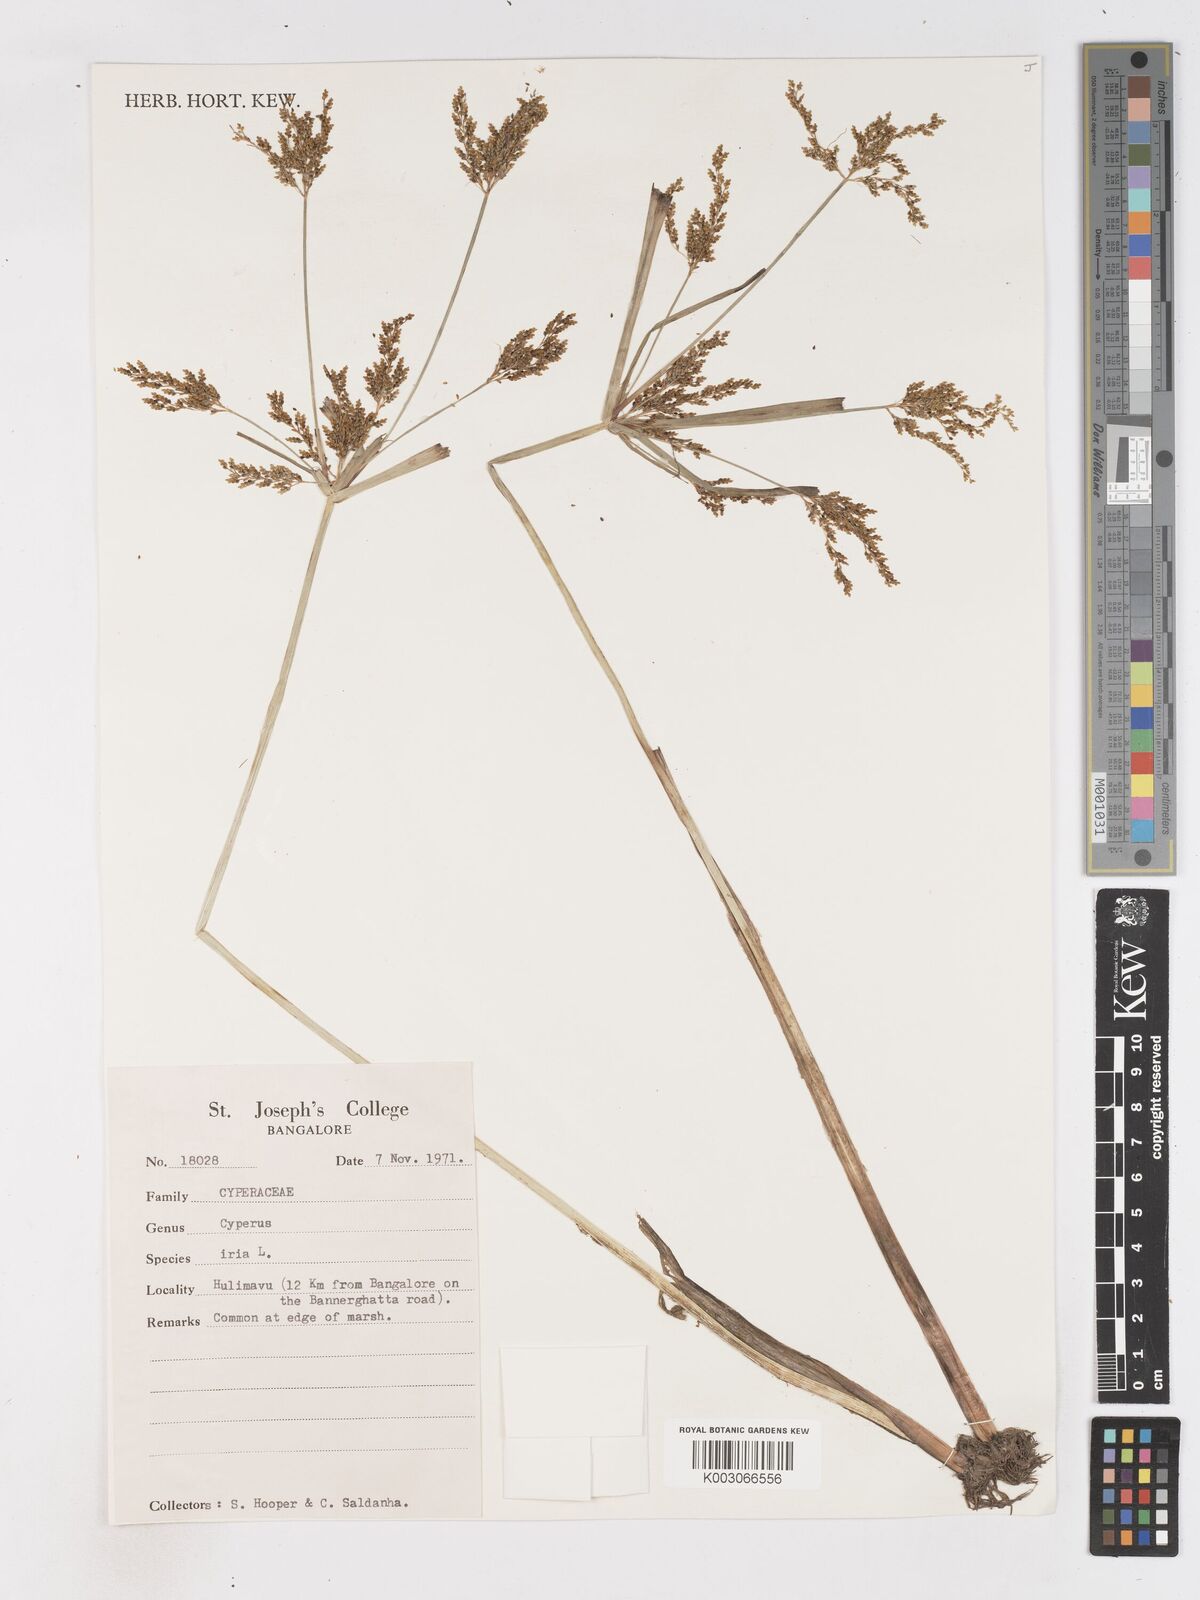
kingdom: Plantae
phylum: Tracheophyta
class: Liliopsida
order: Poales
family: Cyperaceae
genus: Cyperus
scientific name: Cyperus iria
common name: Ricefield flatsedge
